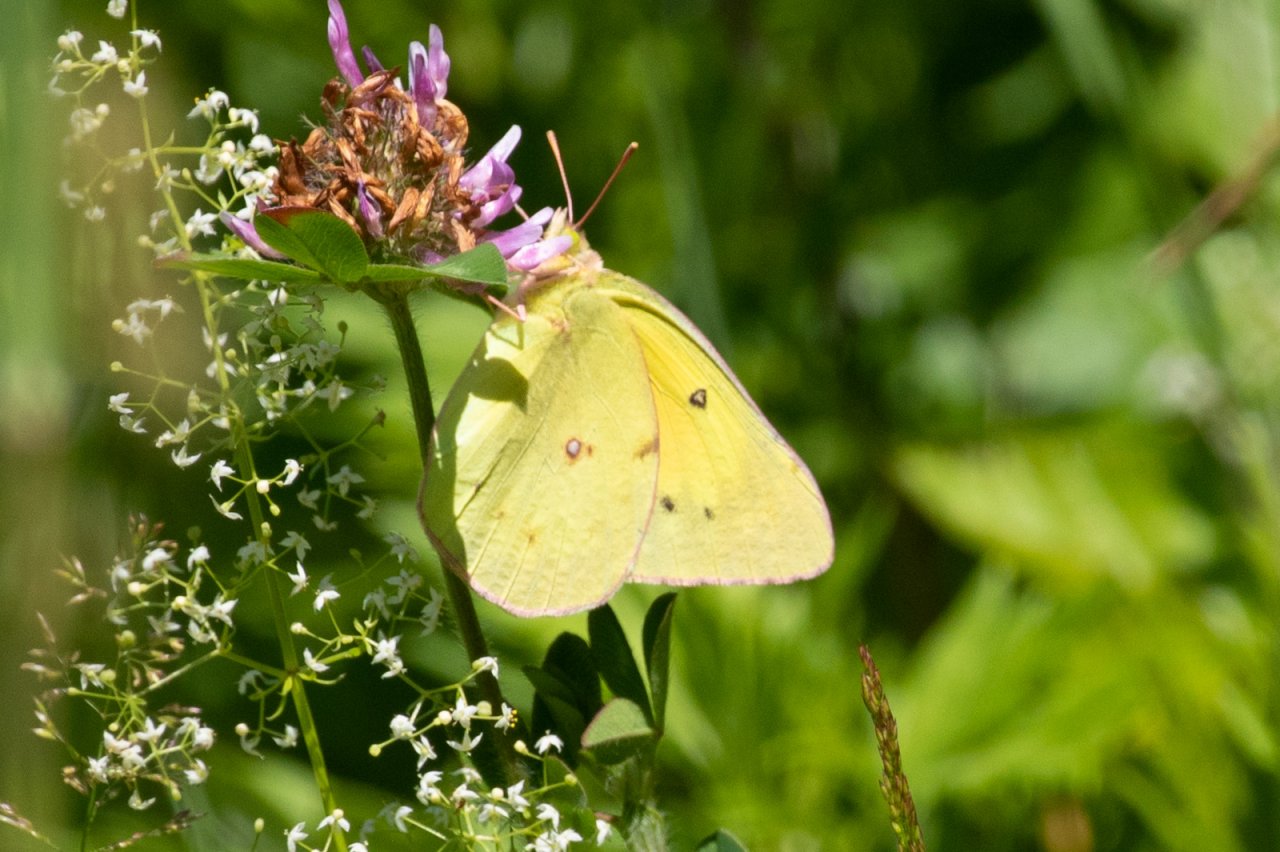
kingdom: Animalia
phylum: Arthropoda
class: Insecta
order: Lepidoptera
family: Pieridae
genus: Colias
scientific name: Colias eurytheme
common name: Orange Sulphur
